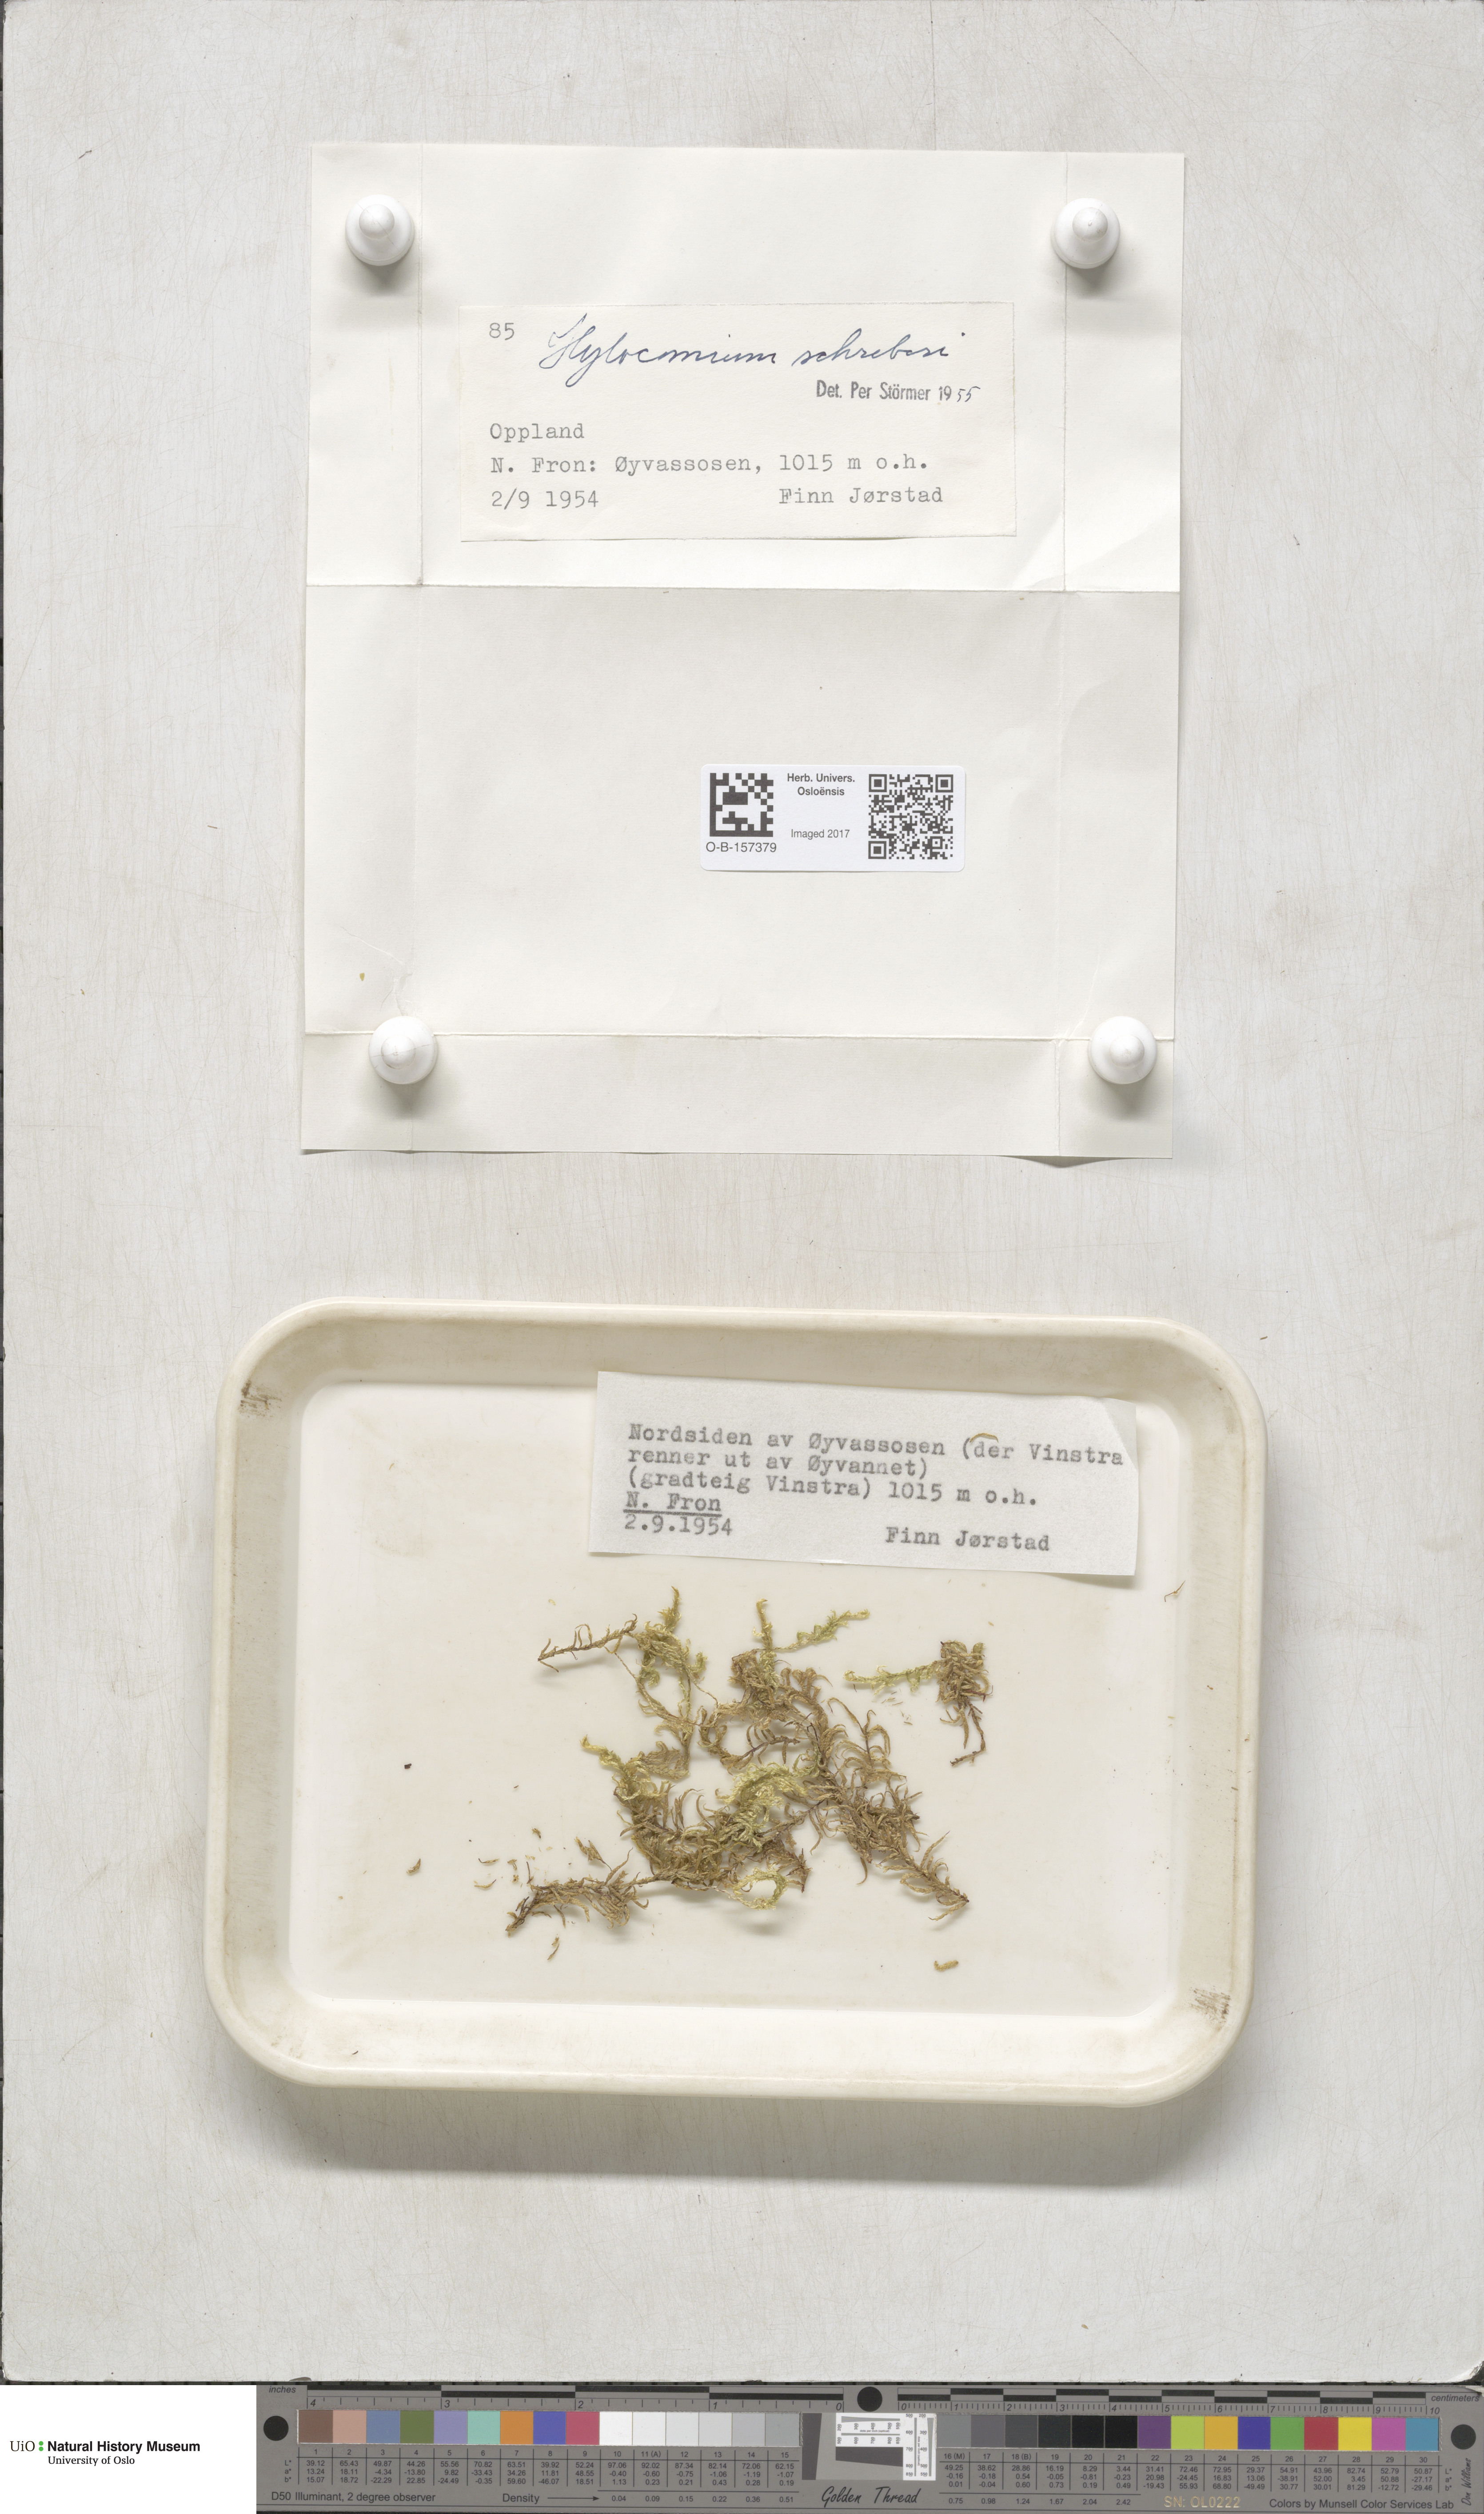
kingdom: Plantae
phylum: Bryophyta
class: Bryopsida
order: Hypnales
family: Hylocomiaceae
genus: Pleurozium
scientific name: Pleurozium schreberi
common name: Red-stemmed feather moss
